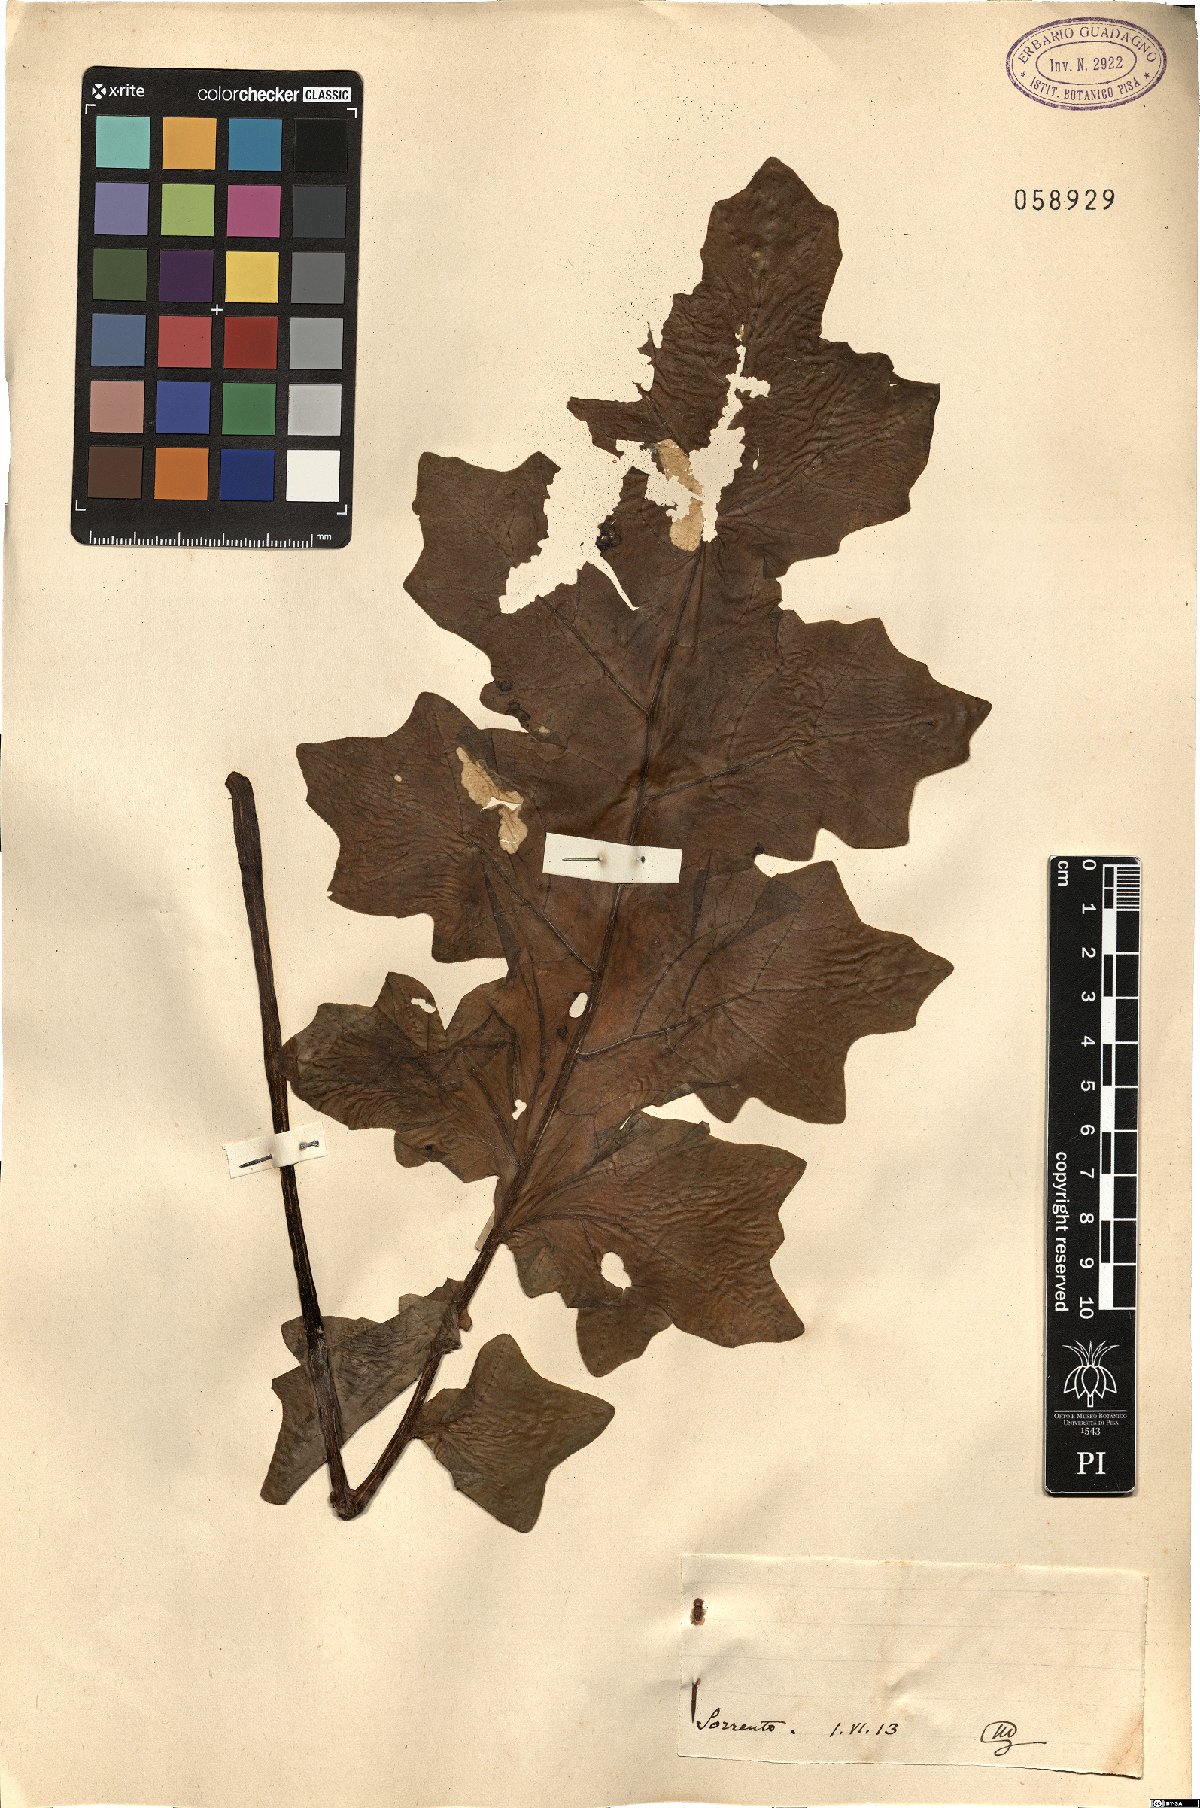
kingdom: Plantae
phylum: Tracheophyta
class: Magnoliopsida
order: Lamiales
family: Acanthaceae
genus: Acanthus
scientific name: Acanthus
